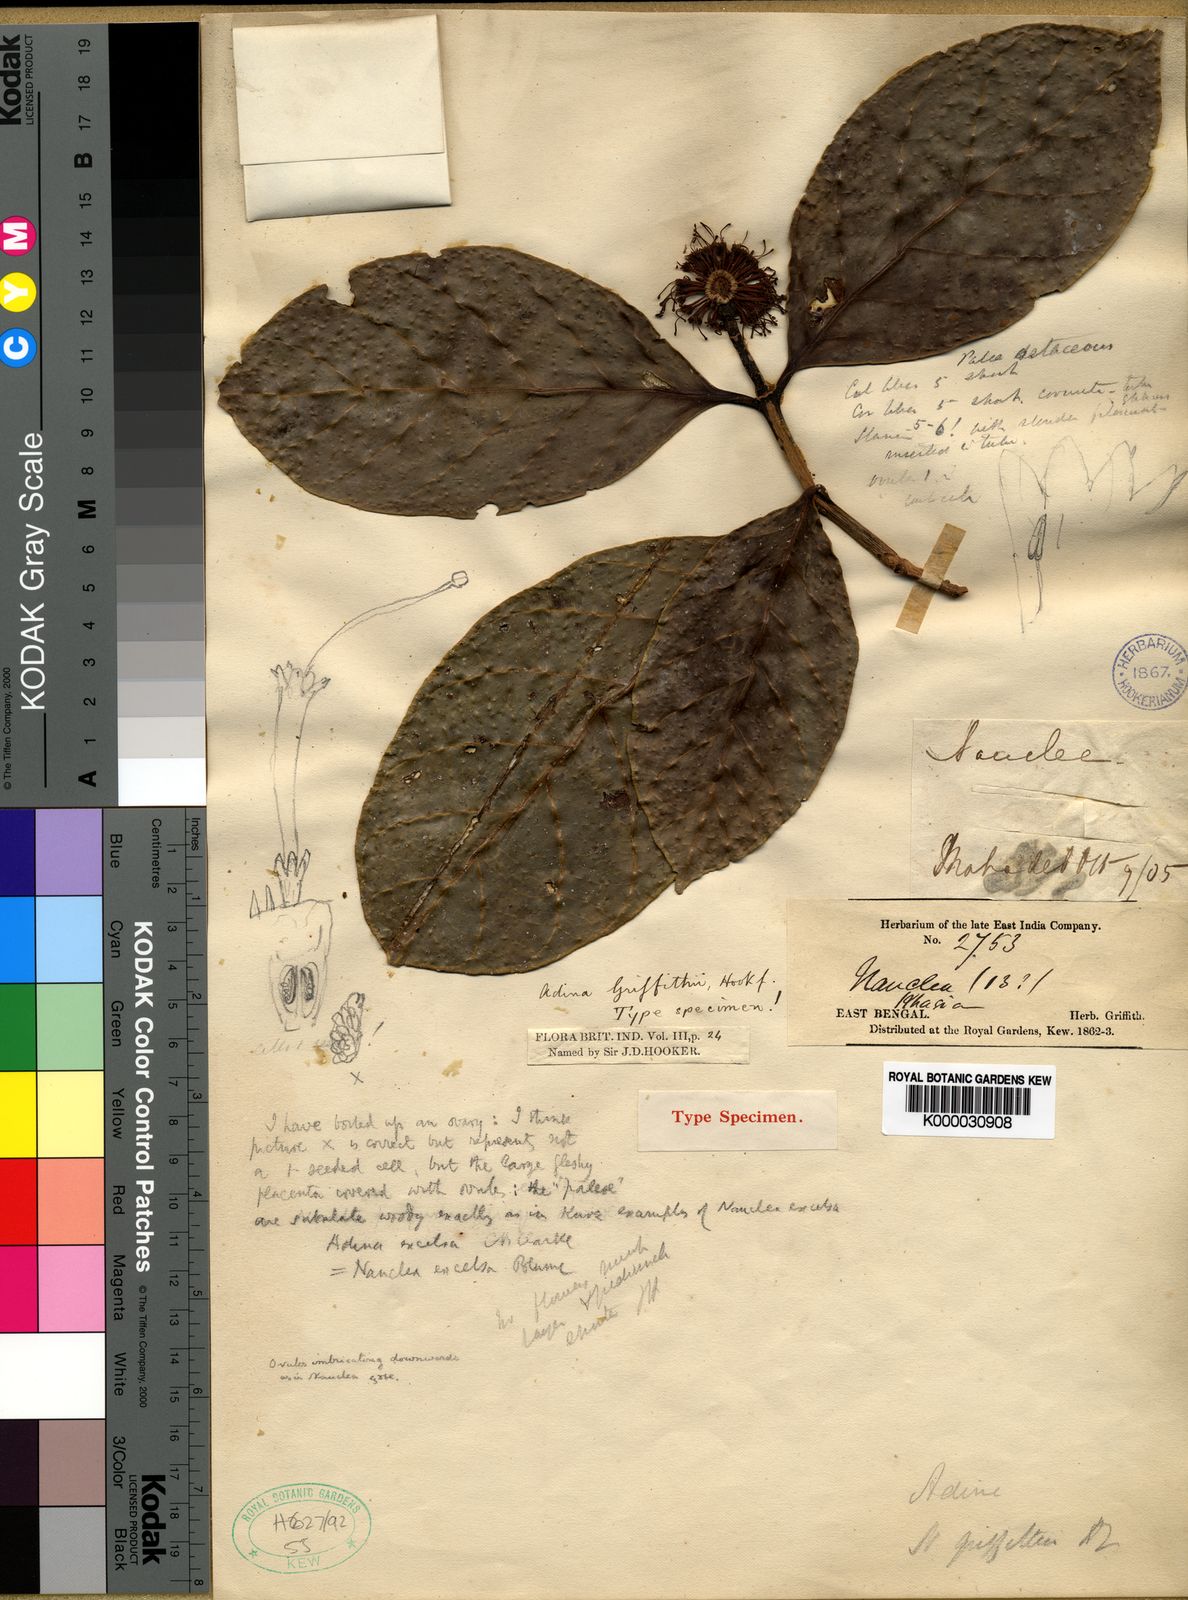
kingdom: Plantae
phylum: Tracheophyta
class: Magnoliopsida
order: Gentianales
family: Rubiaceae
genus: Neonauclea
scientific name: Neonauclea griffithii
